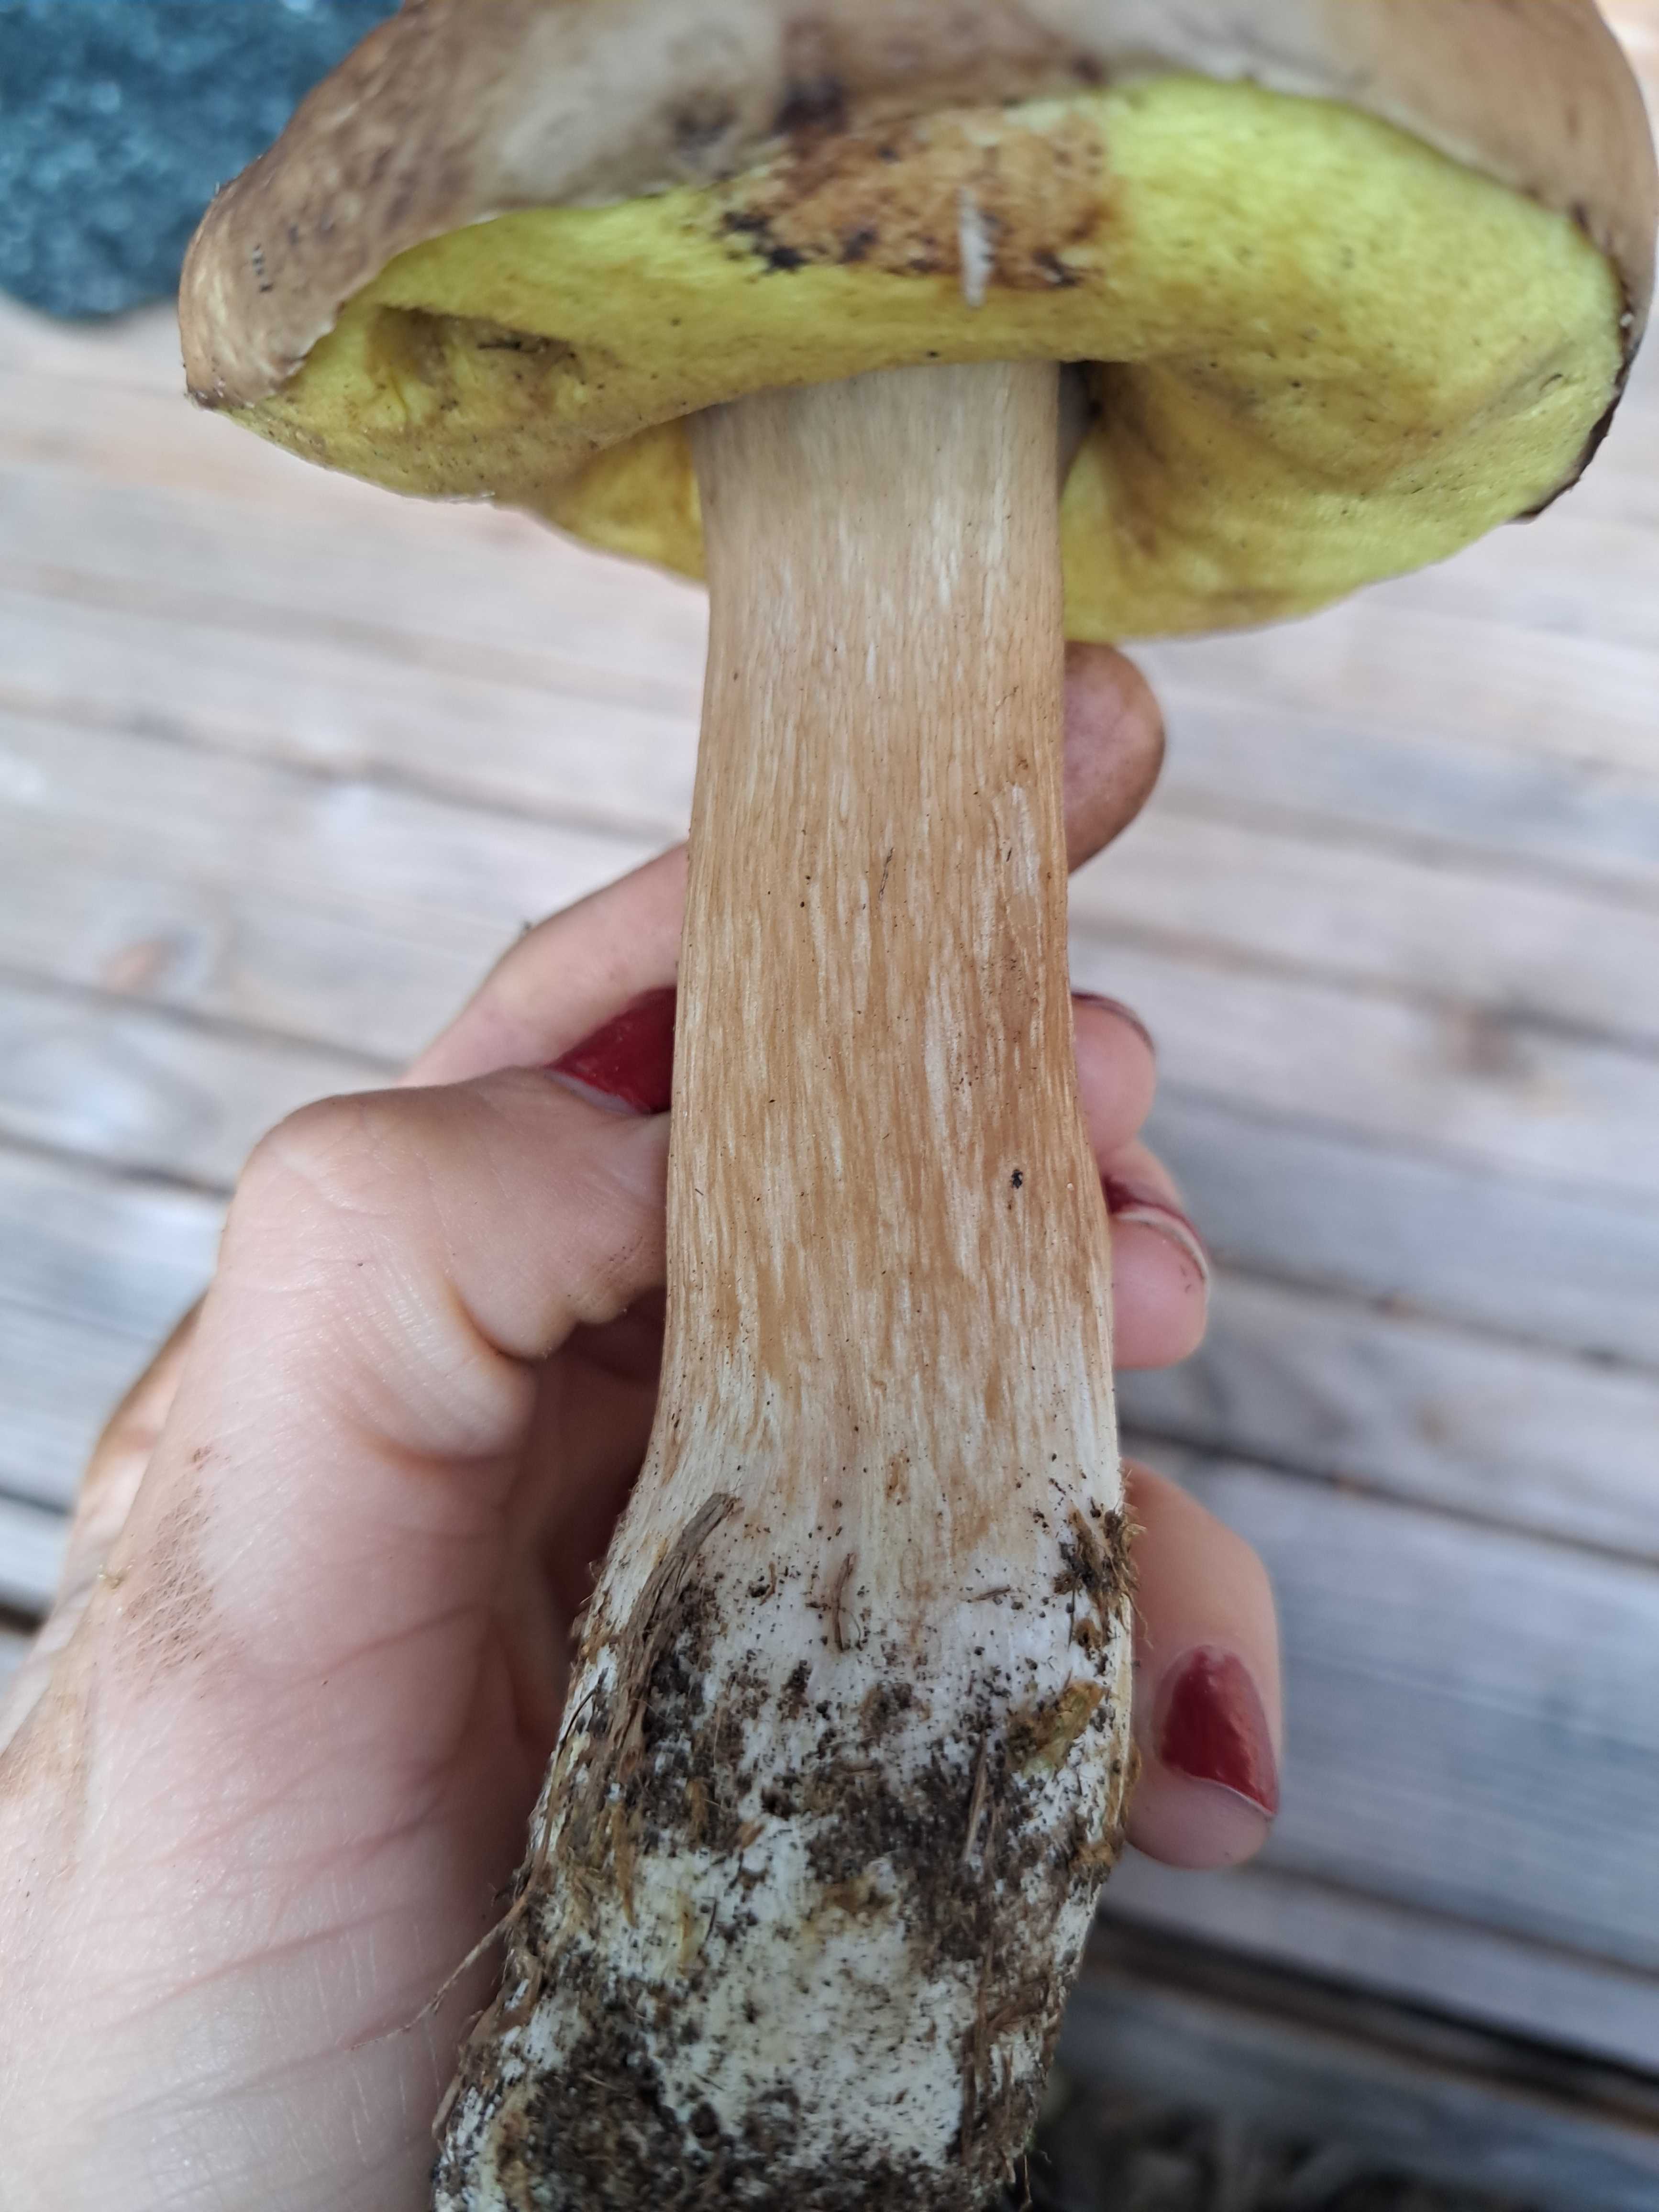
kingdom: Fungi
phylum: Basidiomycota
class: Agaricomycetes
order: Boletales
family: Boletaceae
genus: Boletus
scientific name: Boletus edulis
